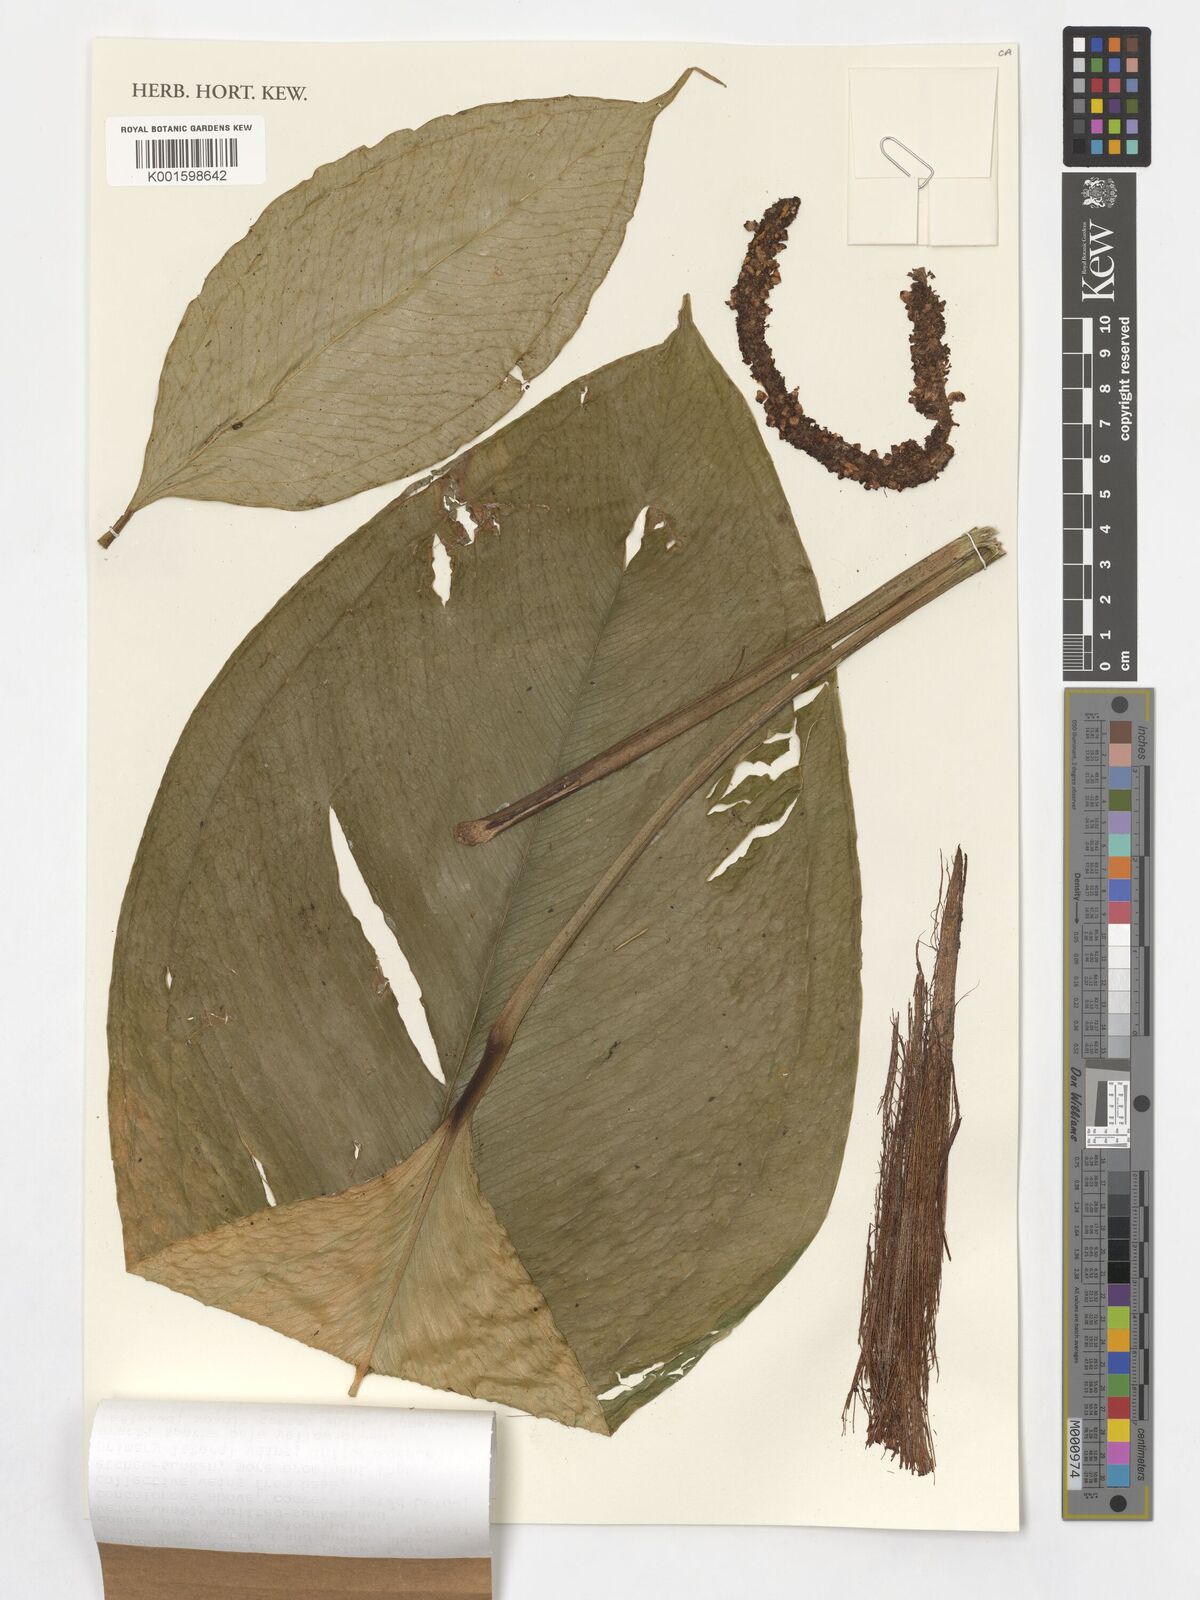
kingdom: Plantae
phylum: Tracheophyta
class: Liliopsida
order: Alismatales
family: Araceae
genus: Anthurium
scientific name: Anthurium
